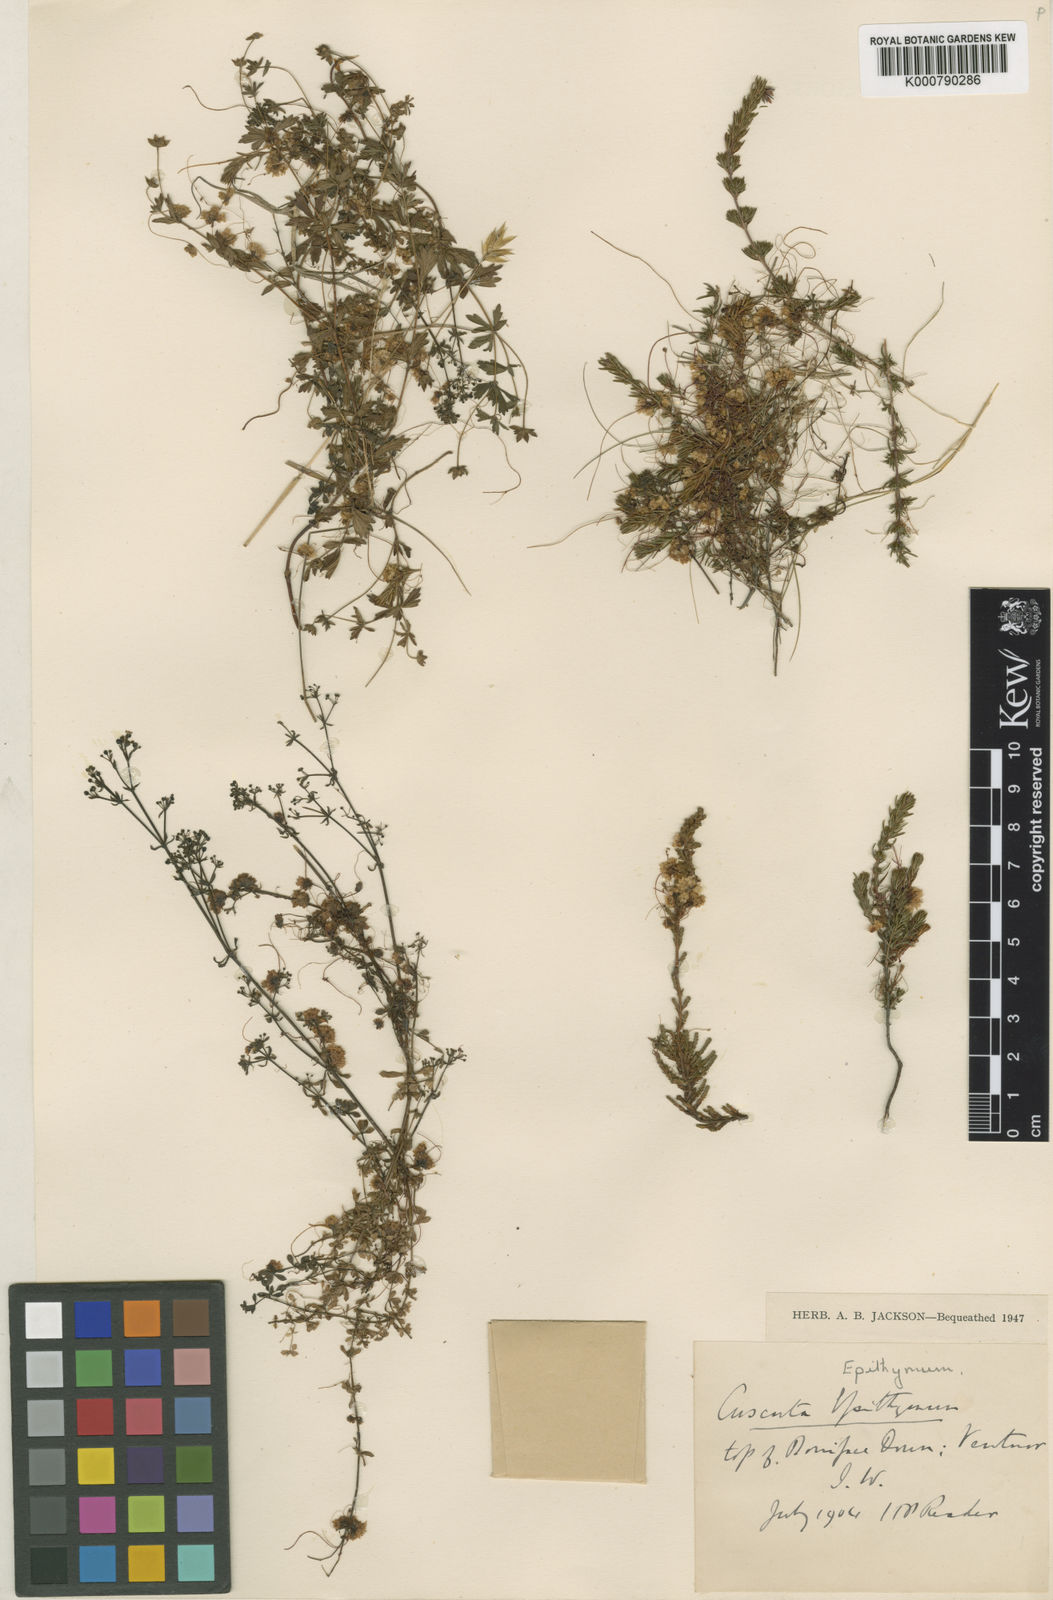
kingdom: Plantae
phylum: Tracheophyta
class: Magnoliopsida
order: Solanales
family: Convolvulaceae
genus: Cuscuta
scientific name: Cuscuta epithymum
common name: Clover dodder
